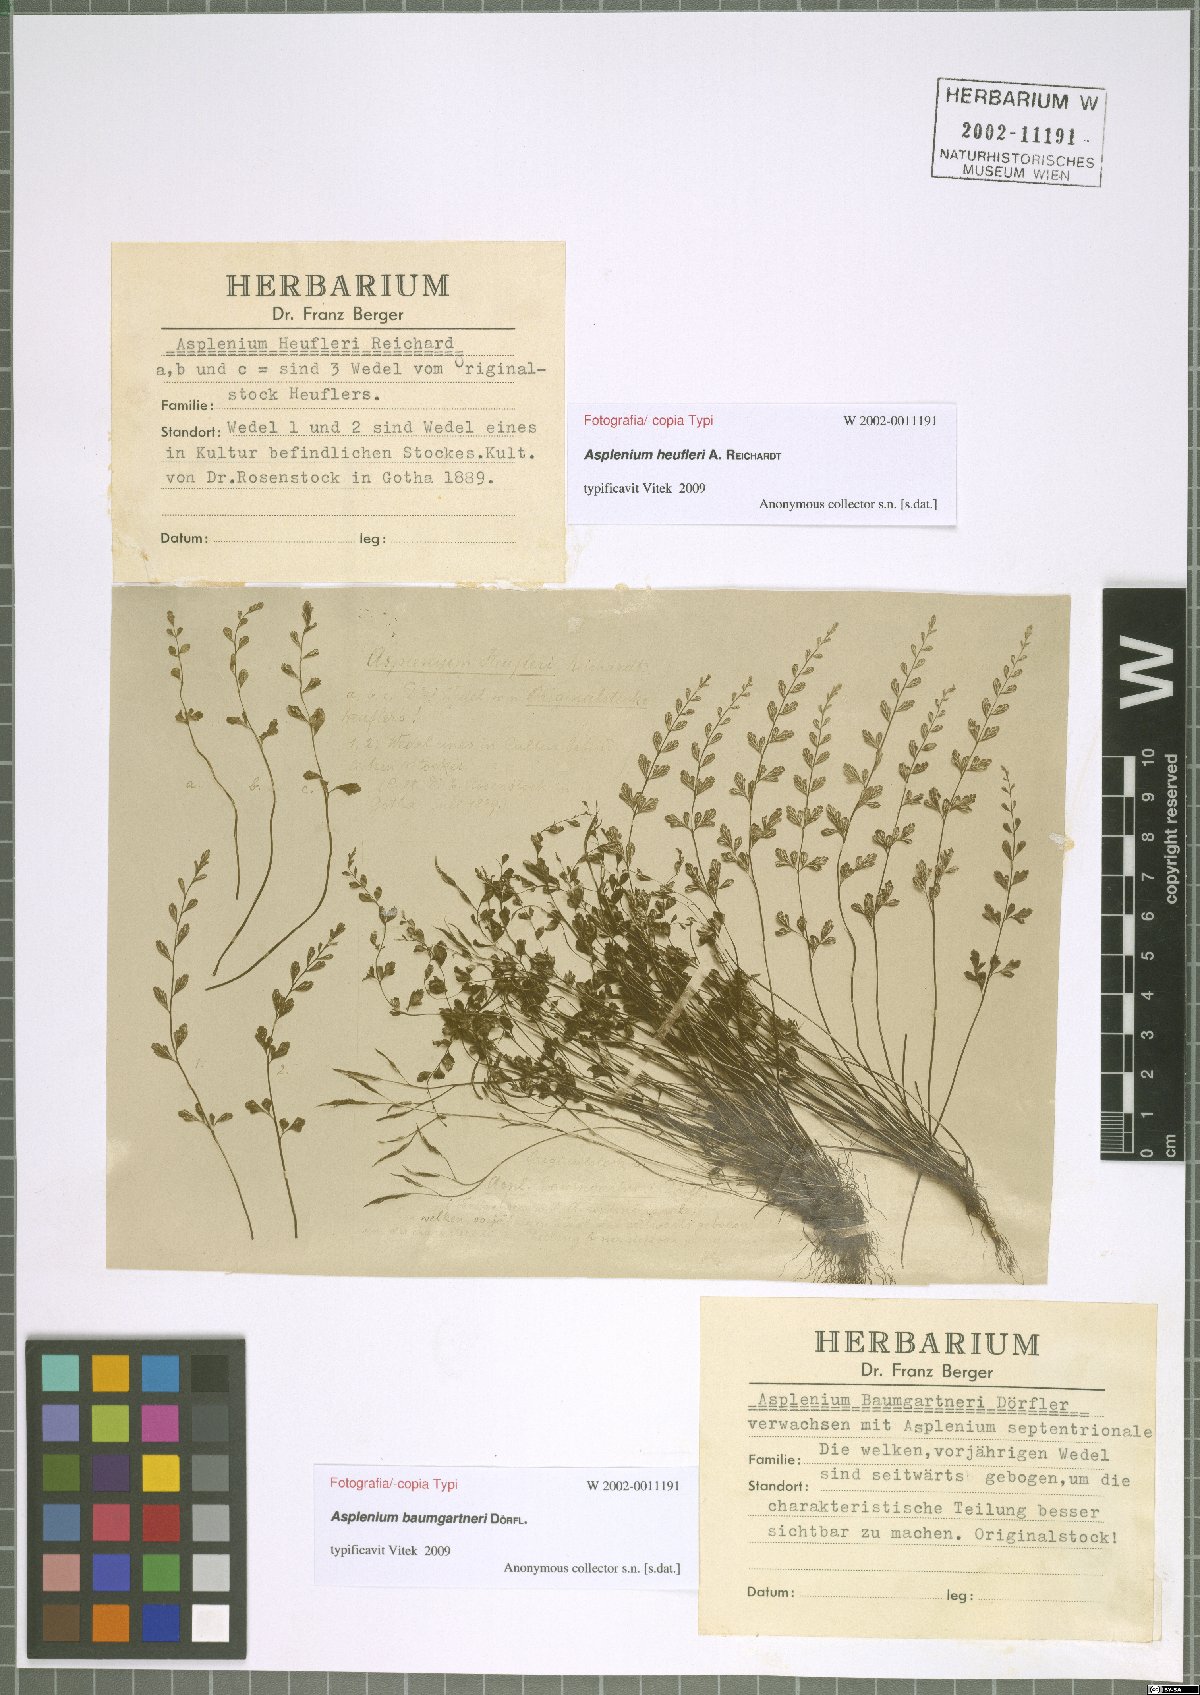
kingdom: Plantae
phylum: Tracheophyta
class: Polypodiopsida
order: Polypodiales
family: Aspleniaceae
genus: Asplenium
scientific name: Asplenium heufleri
